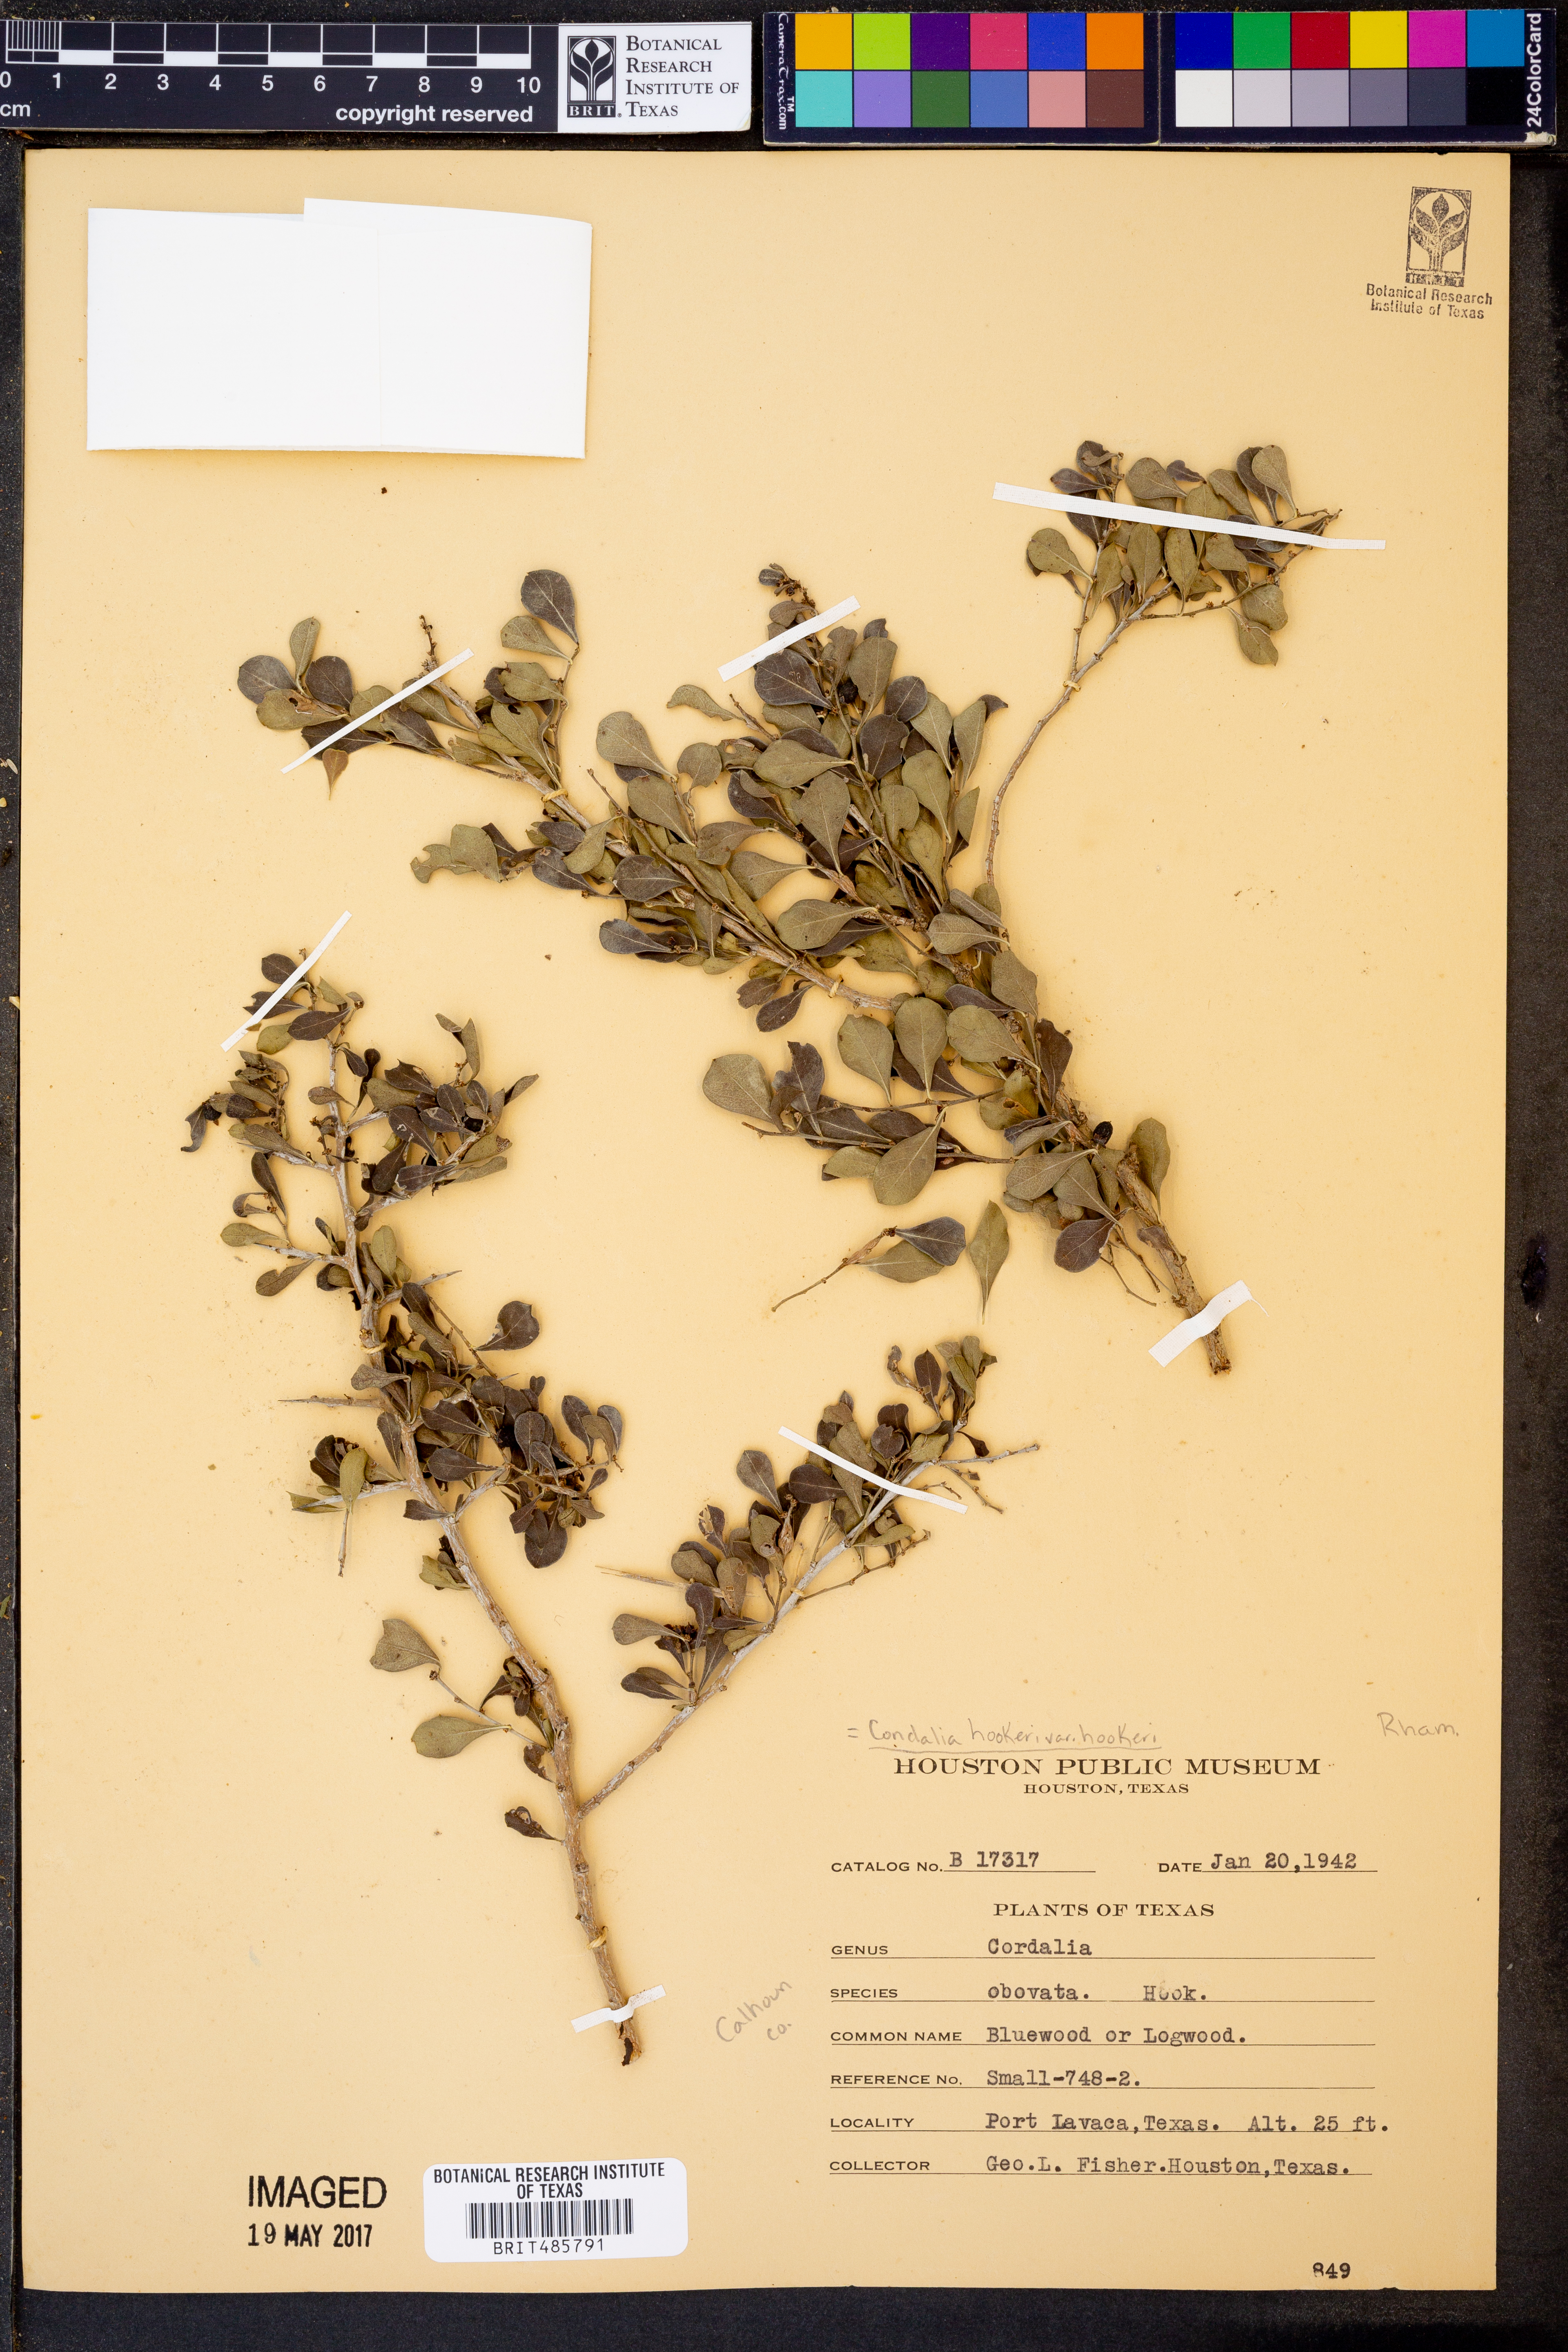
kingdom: Plantae
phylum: Tracheophyta
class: Magnoliopsida
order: Rosales
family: Rhamnaceae
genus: Condalia
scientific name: Condalia hookeri
